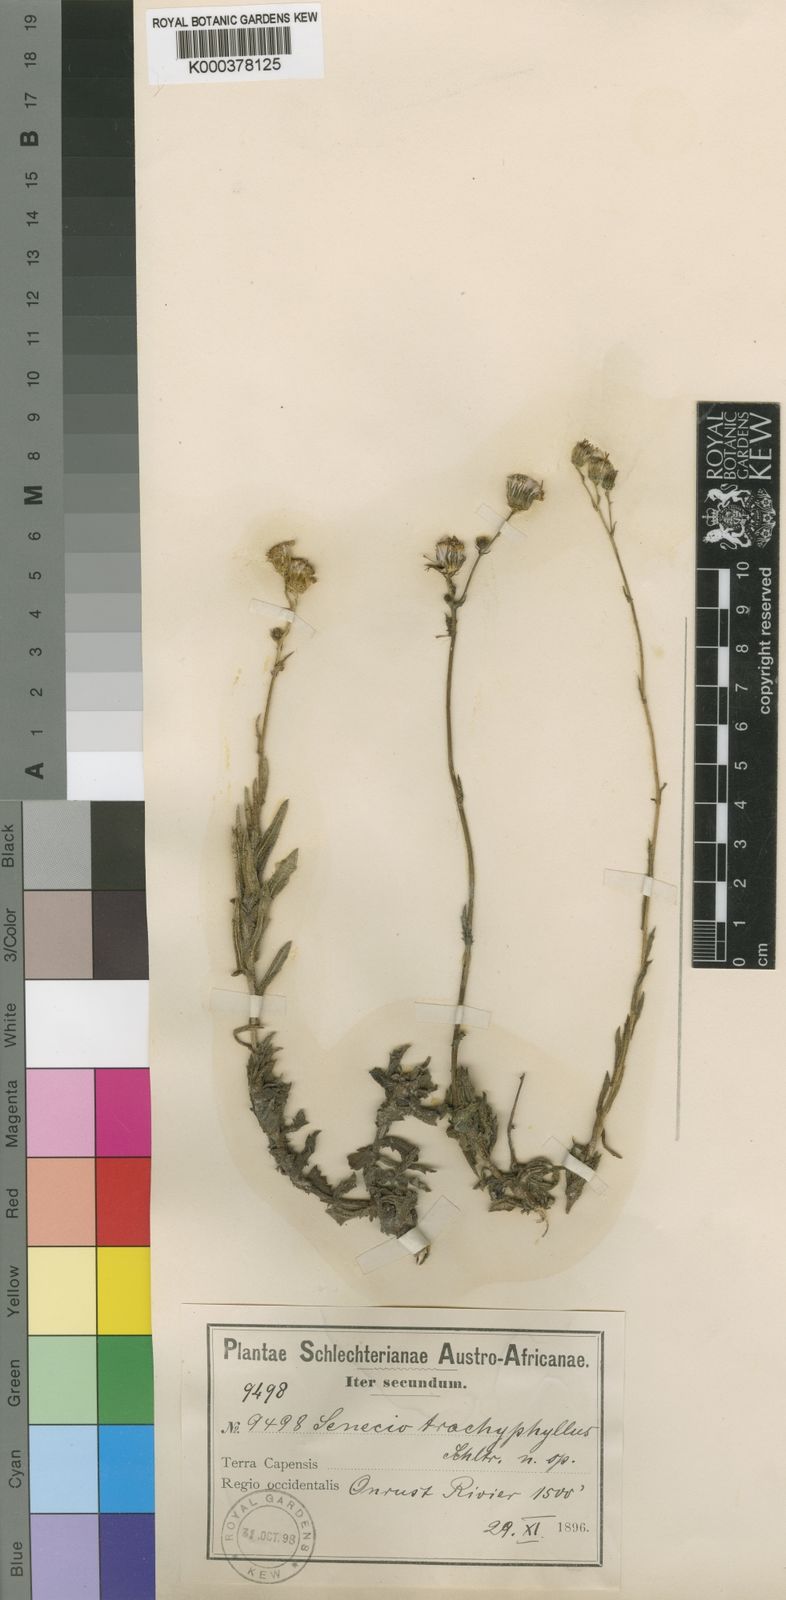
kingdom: Plantae
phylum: Tracheophyta
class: Magnoliopsida
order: Asterales
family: Asteraceae
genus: Senecio
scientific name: Senecio trachyphyllus
